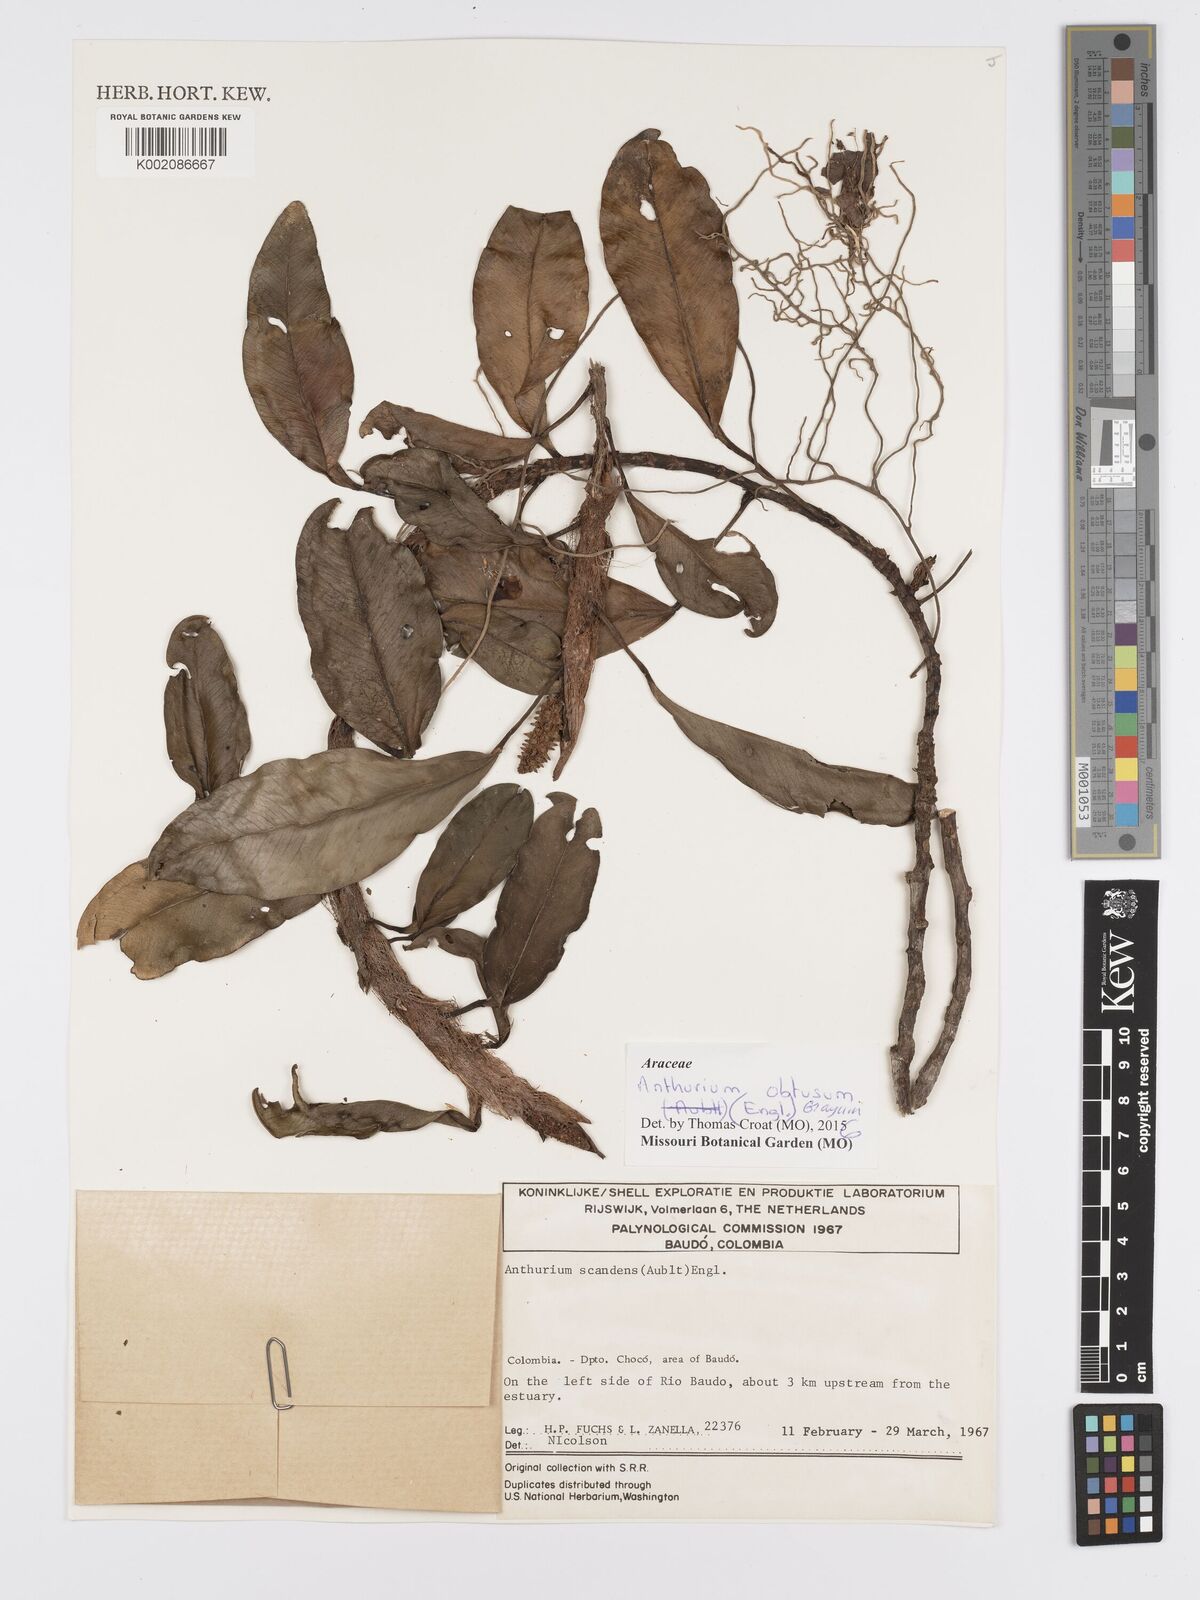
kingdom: Plantae
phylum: Tracheophyta
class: Liliopsida
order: Alismatales
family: Araceae
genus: Anthurium
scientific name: Anthurium obtusum
